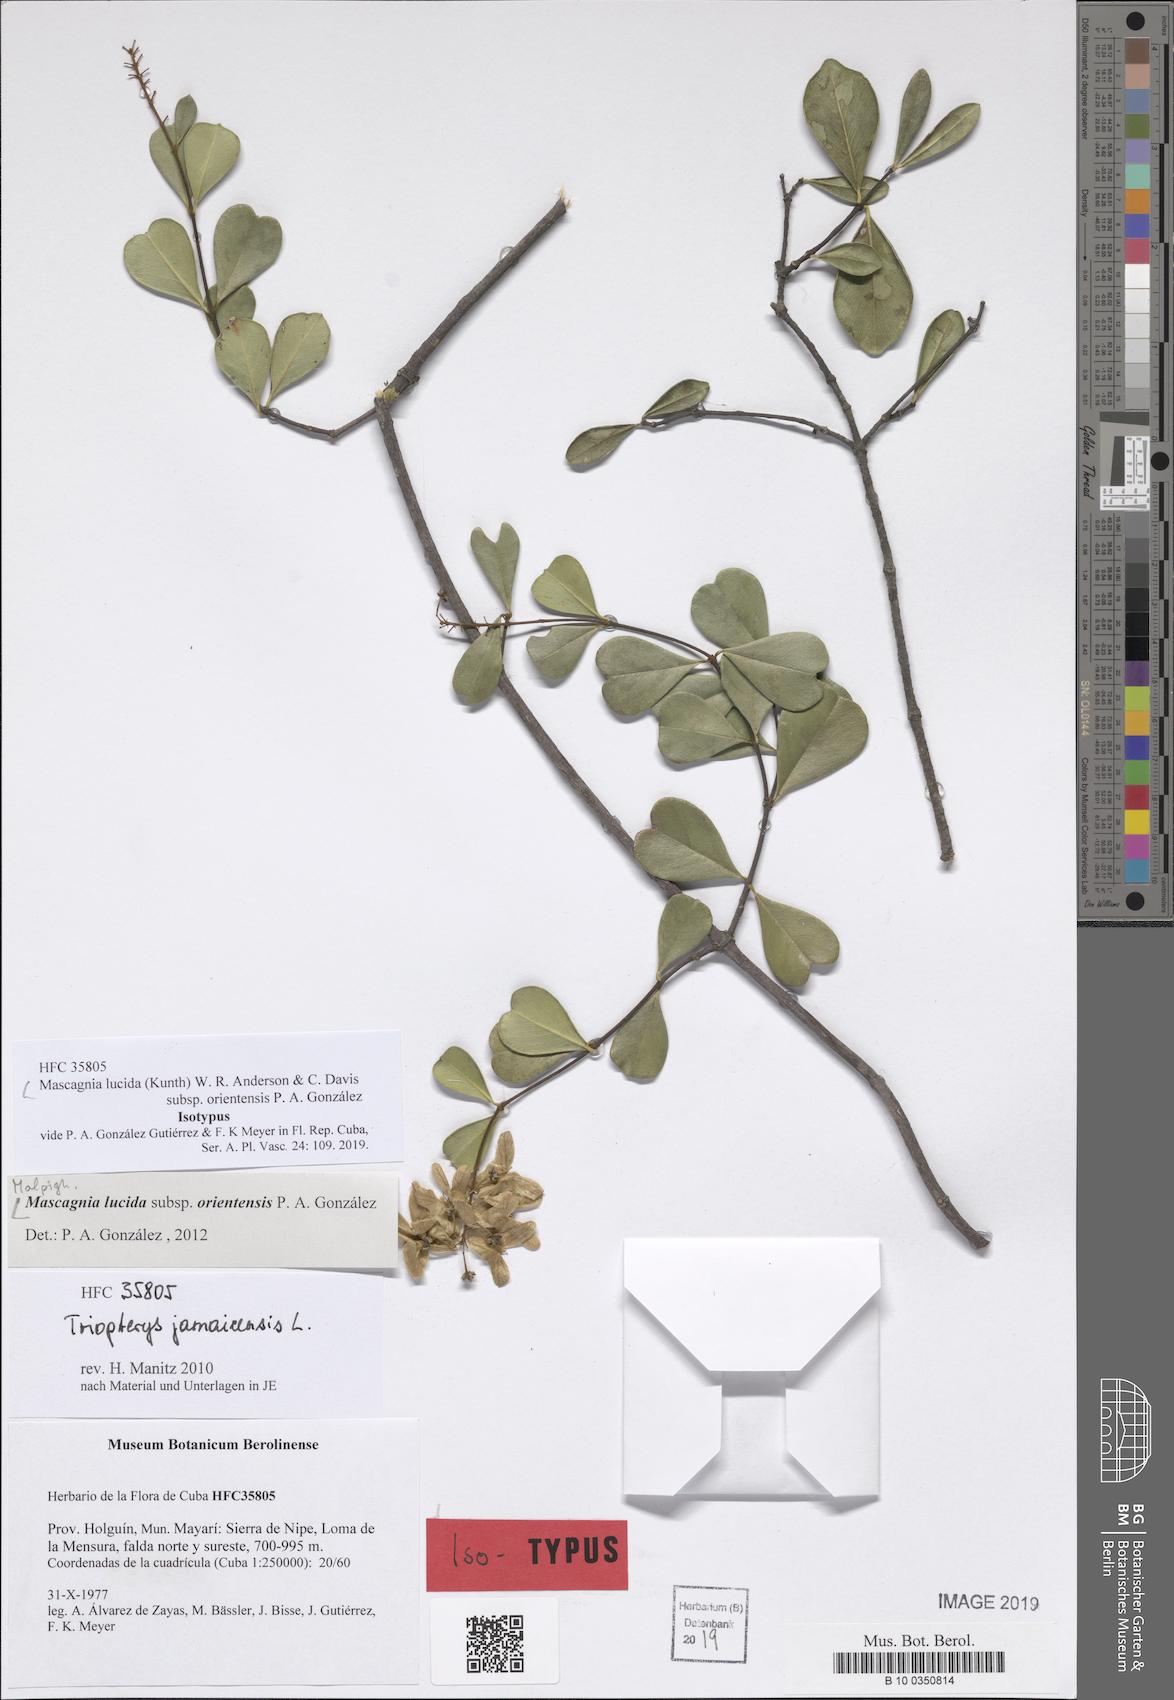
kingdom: Plantae
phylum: Tracheophyta
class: Magnoliopsida
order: Malpighiales
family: Malpighiaceae
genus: Mascagnia
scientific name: Mascagnia lucida
